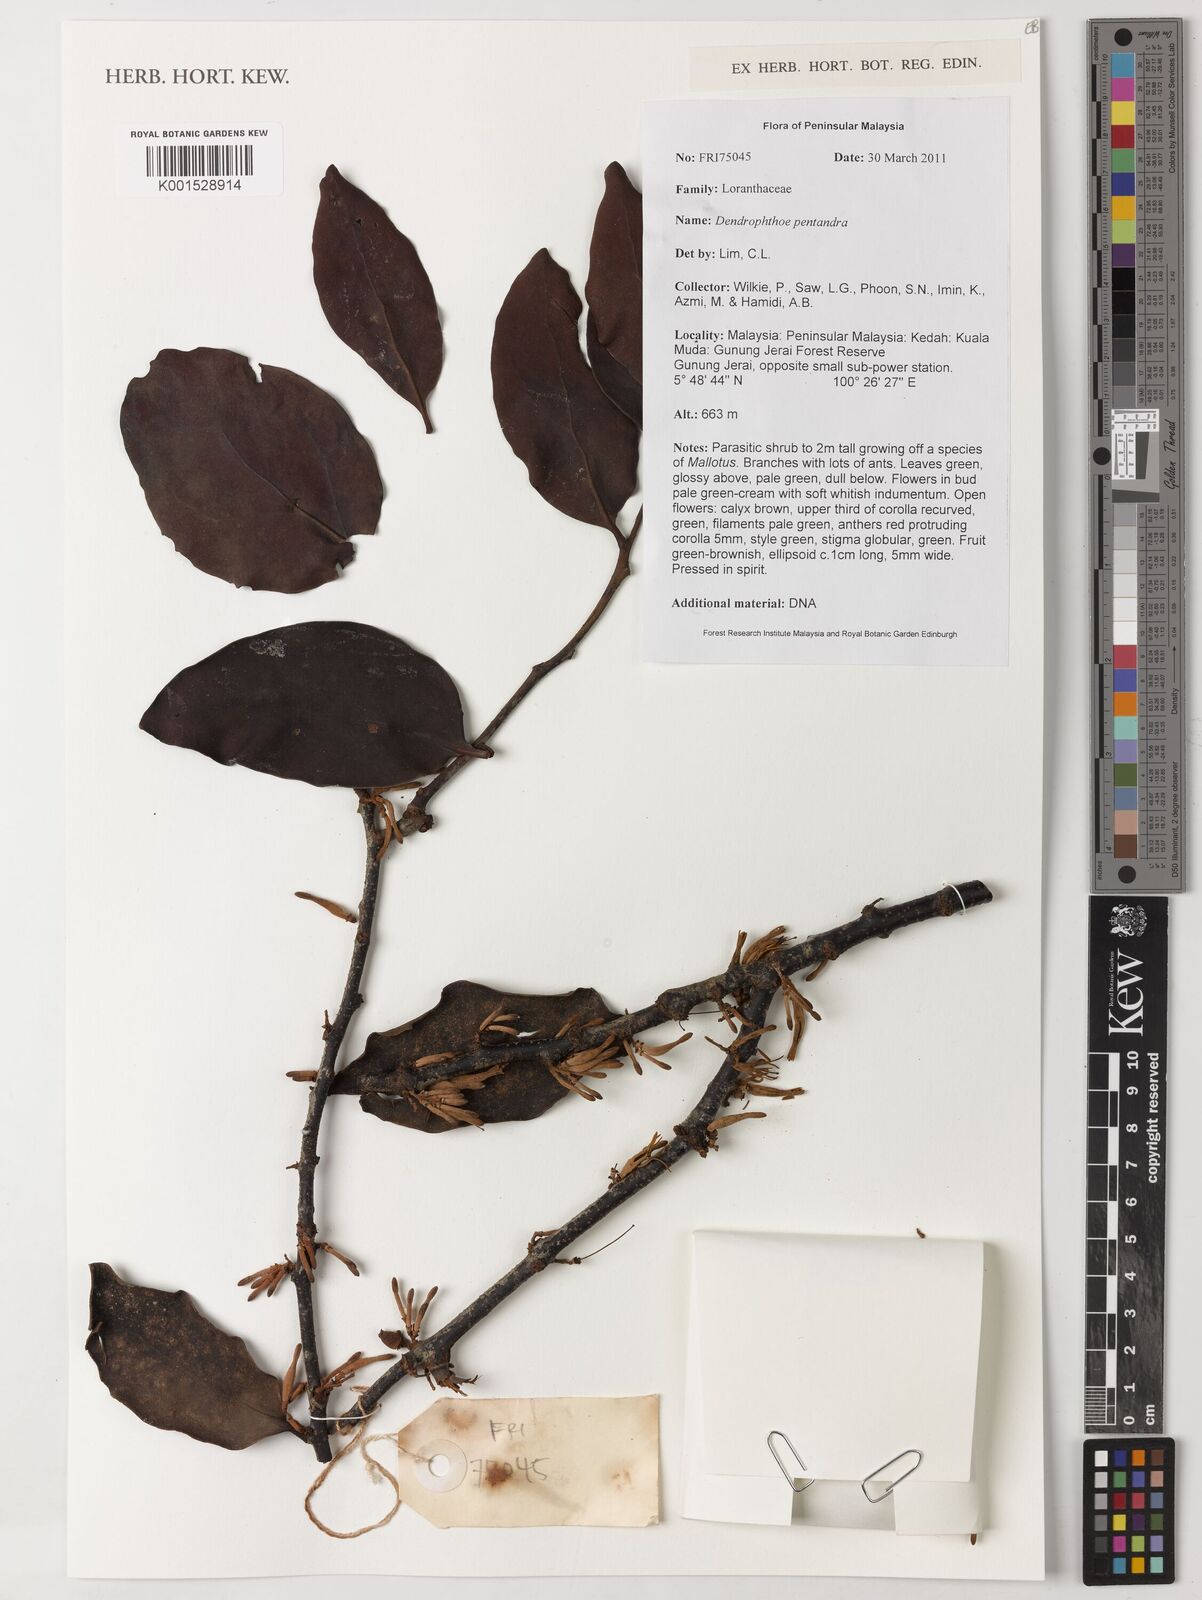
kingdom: Plantae
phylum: Tracheophyta
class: Magnoliopsida
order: Santalales
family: Loranthaceae
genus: Dendrophthoe
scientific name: Dendrophthoe pentandra
